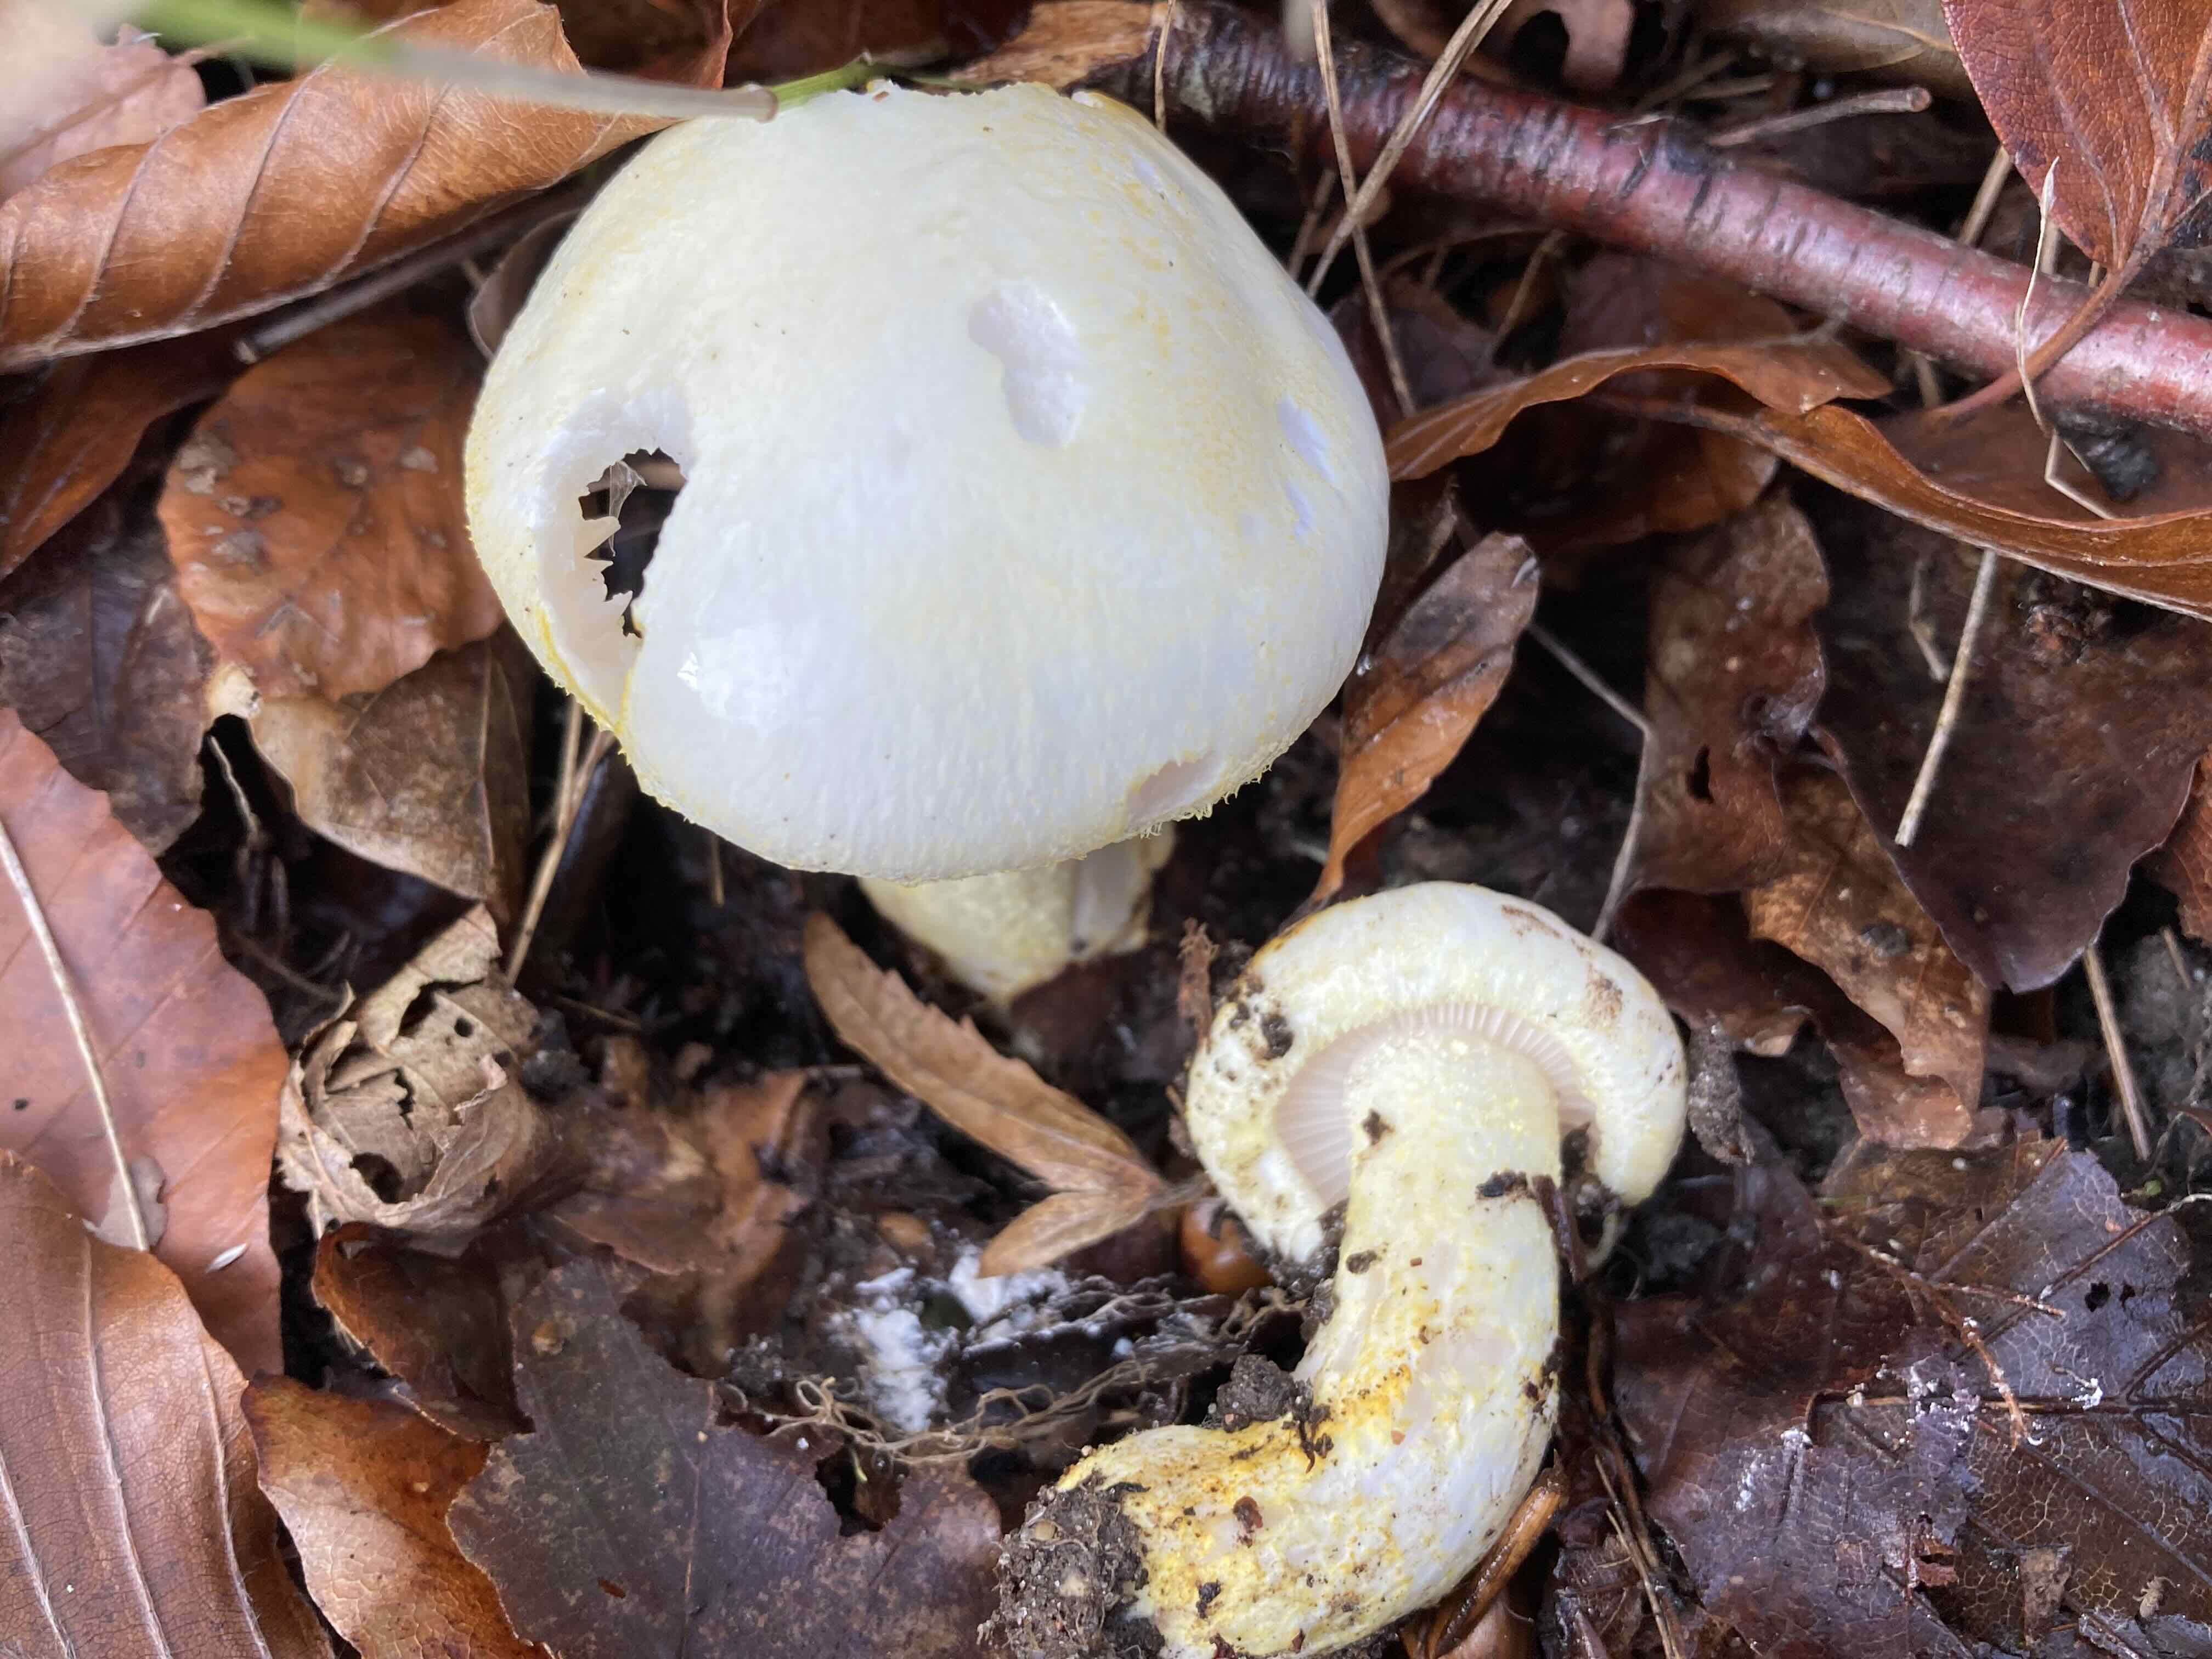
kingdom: Fungi
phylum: Basidiomycota
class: Agaricomycetes
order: Agaricales
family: Hygrophoraceae
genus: Hygrophorus
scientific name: Hygrophorus chrysodon
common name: gulfnugget sneglehat
